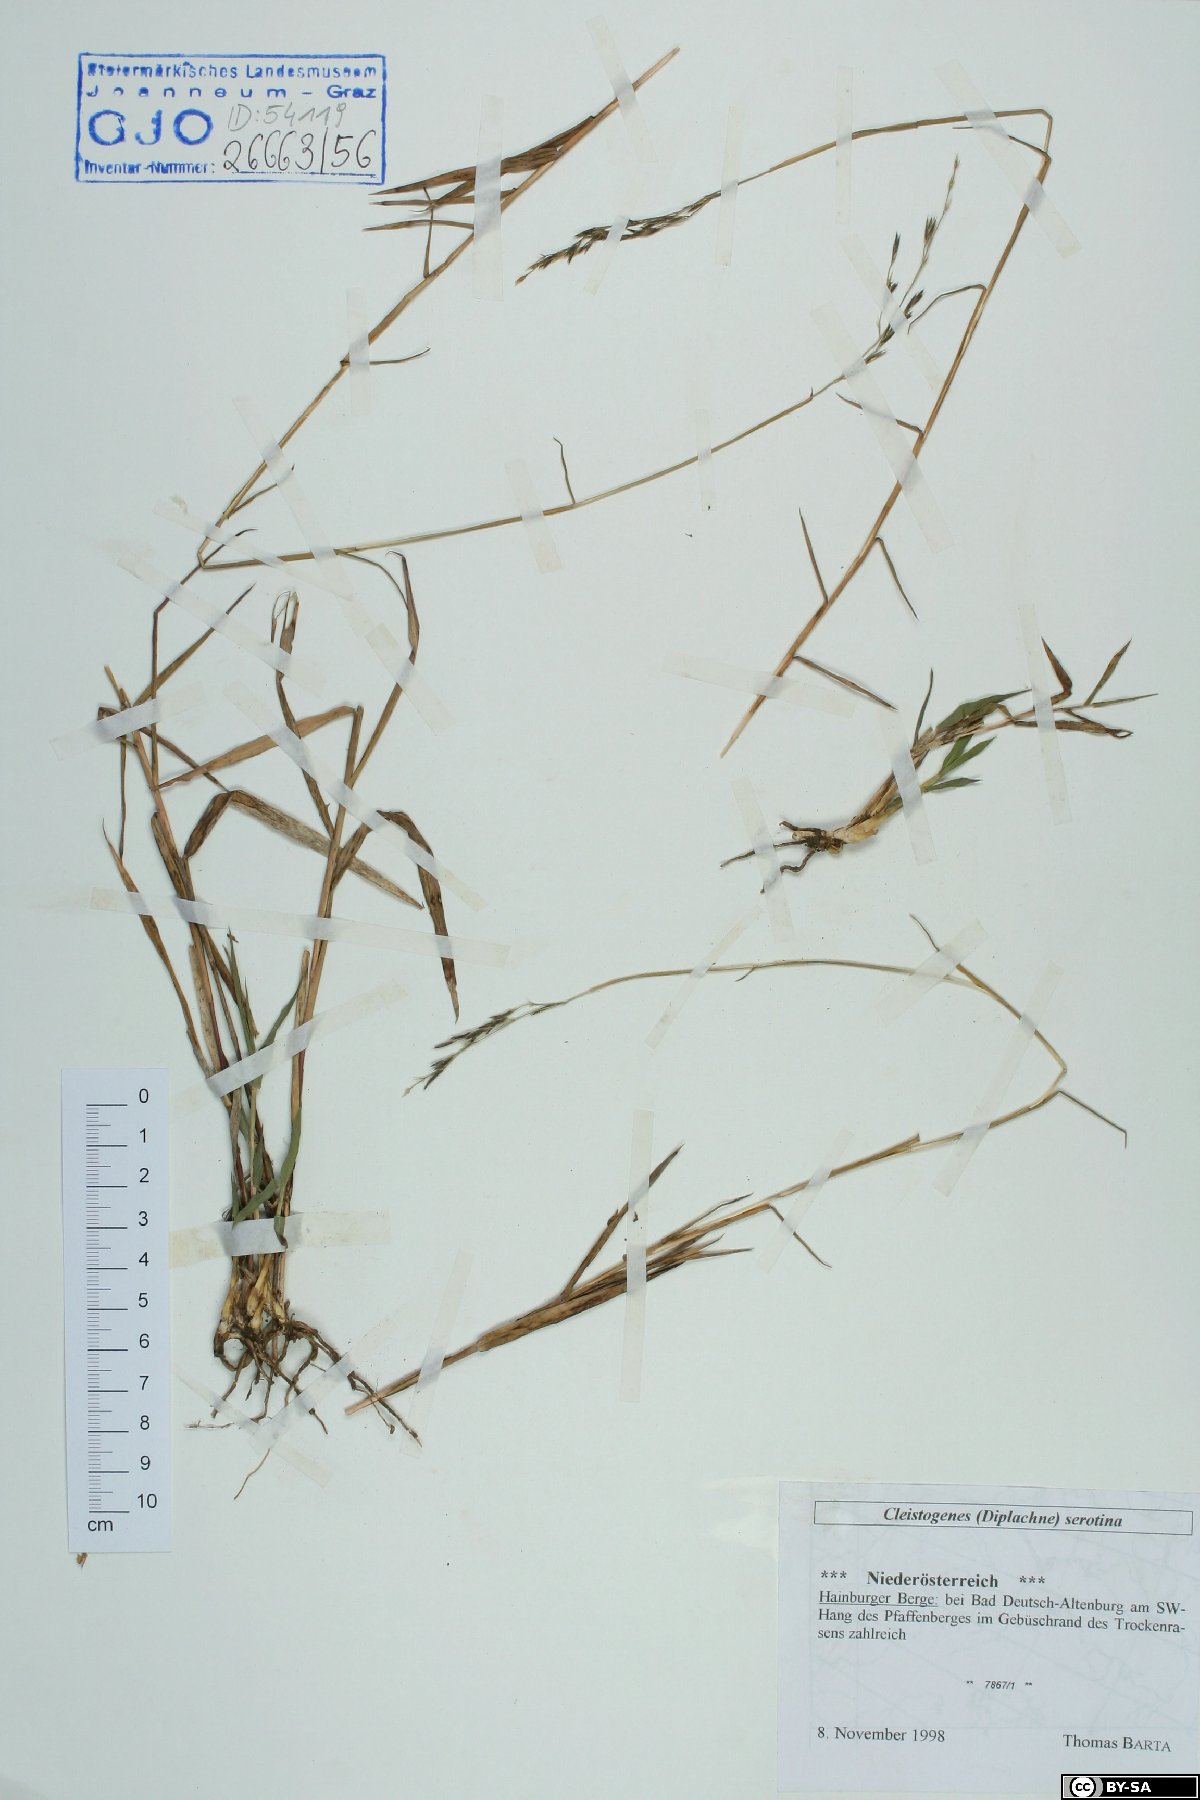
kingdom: Plantae
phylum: Tracheophyta
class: Liliopsida
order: Poales
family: Poaceae
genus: Cleistogenes
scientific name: Cleistogenes serotina
